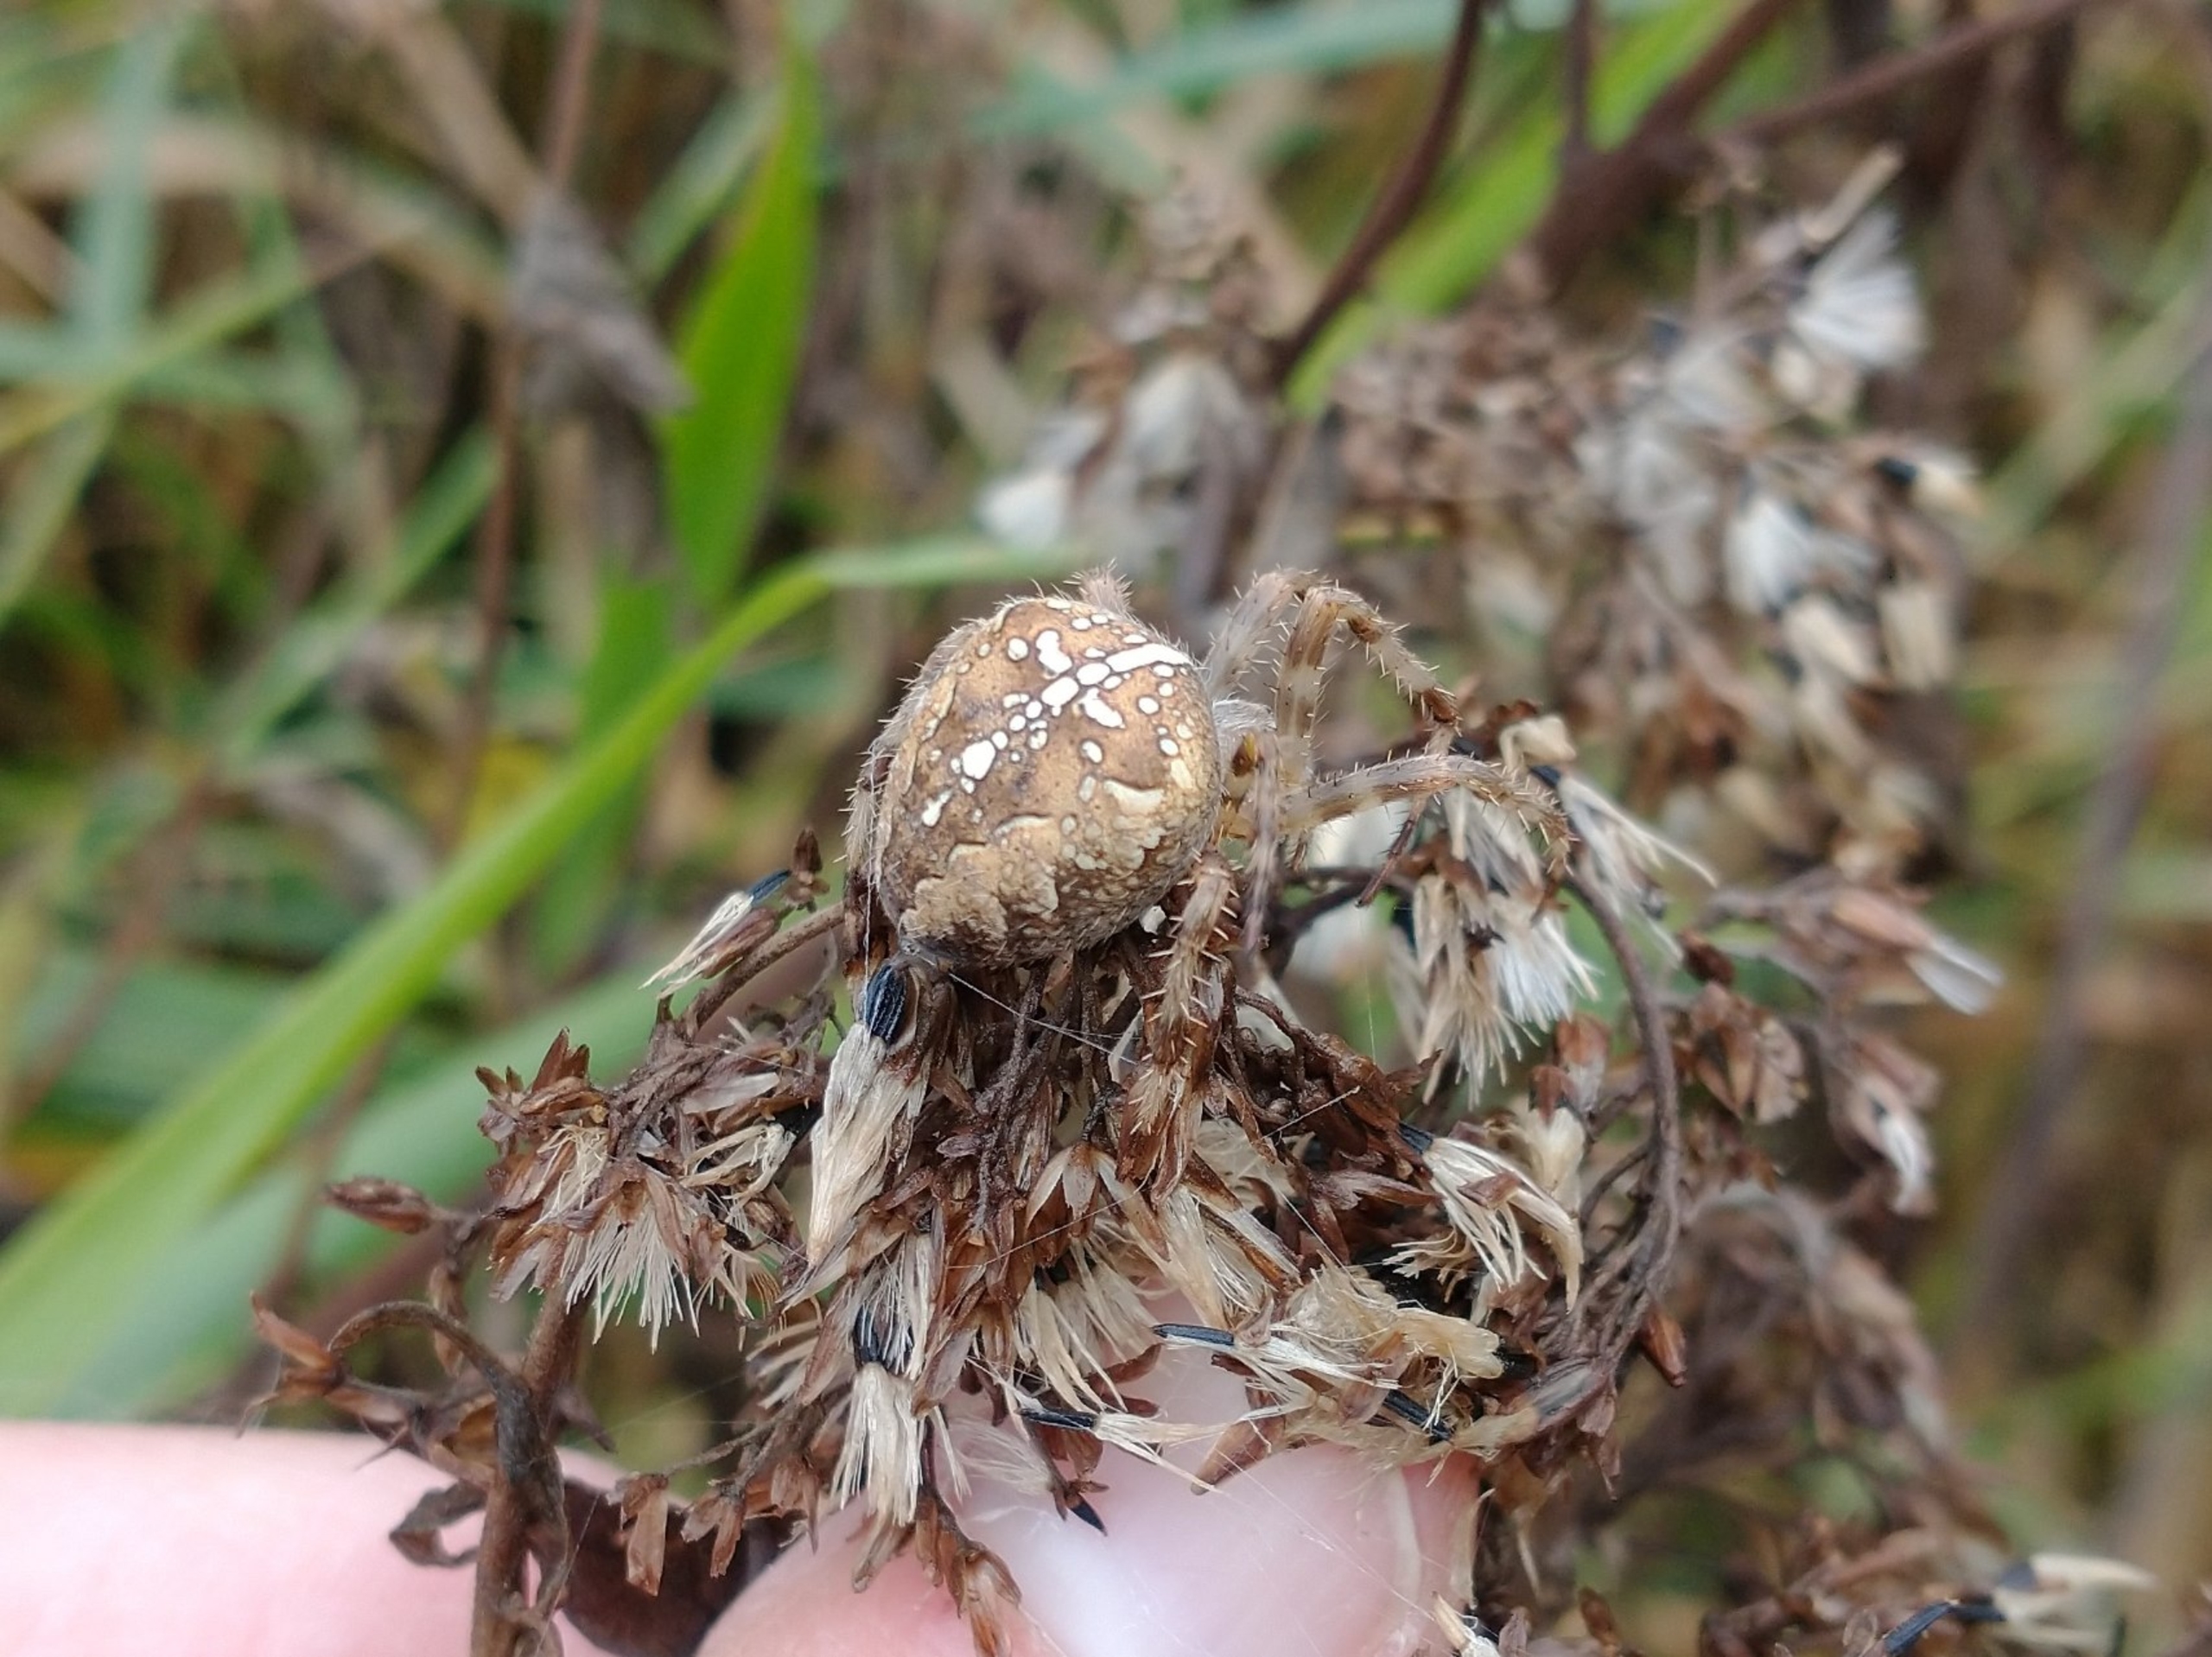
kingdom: Animalia
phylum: Arthropoda
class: Arachnida
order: Araneae
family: Araneidae
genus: Araneus
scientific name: Araneus diadematus
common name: Korsedderkop
